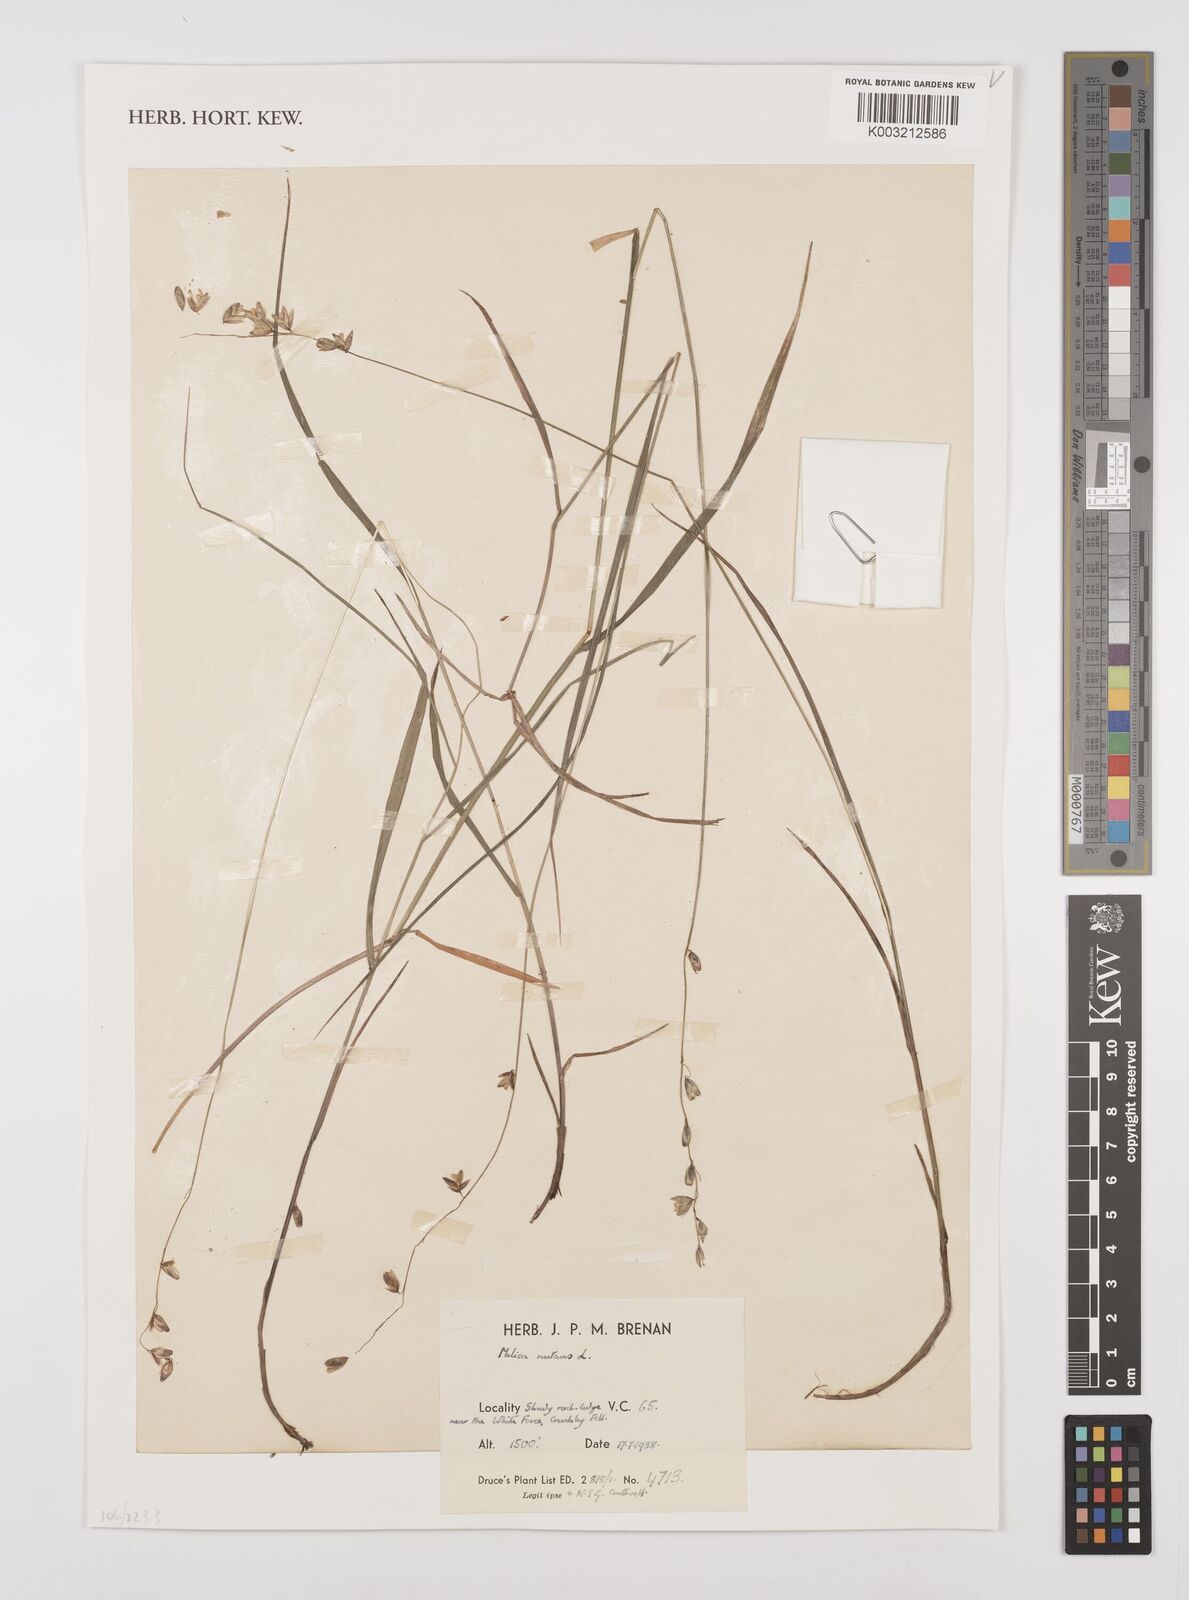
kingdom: Plantae
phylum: Tracheophyta
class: Liliopsida
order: Poales
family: Poaceae
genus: Melica
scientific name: Melica
